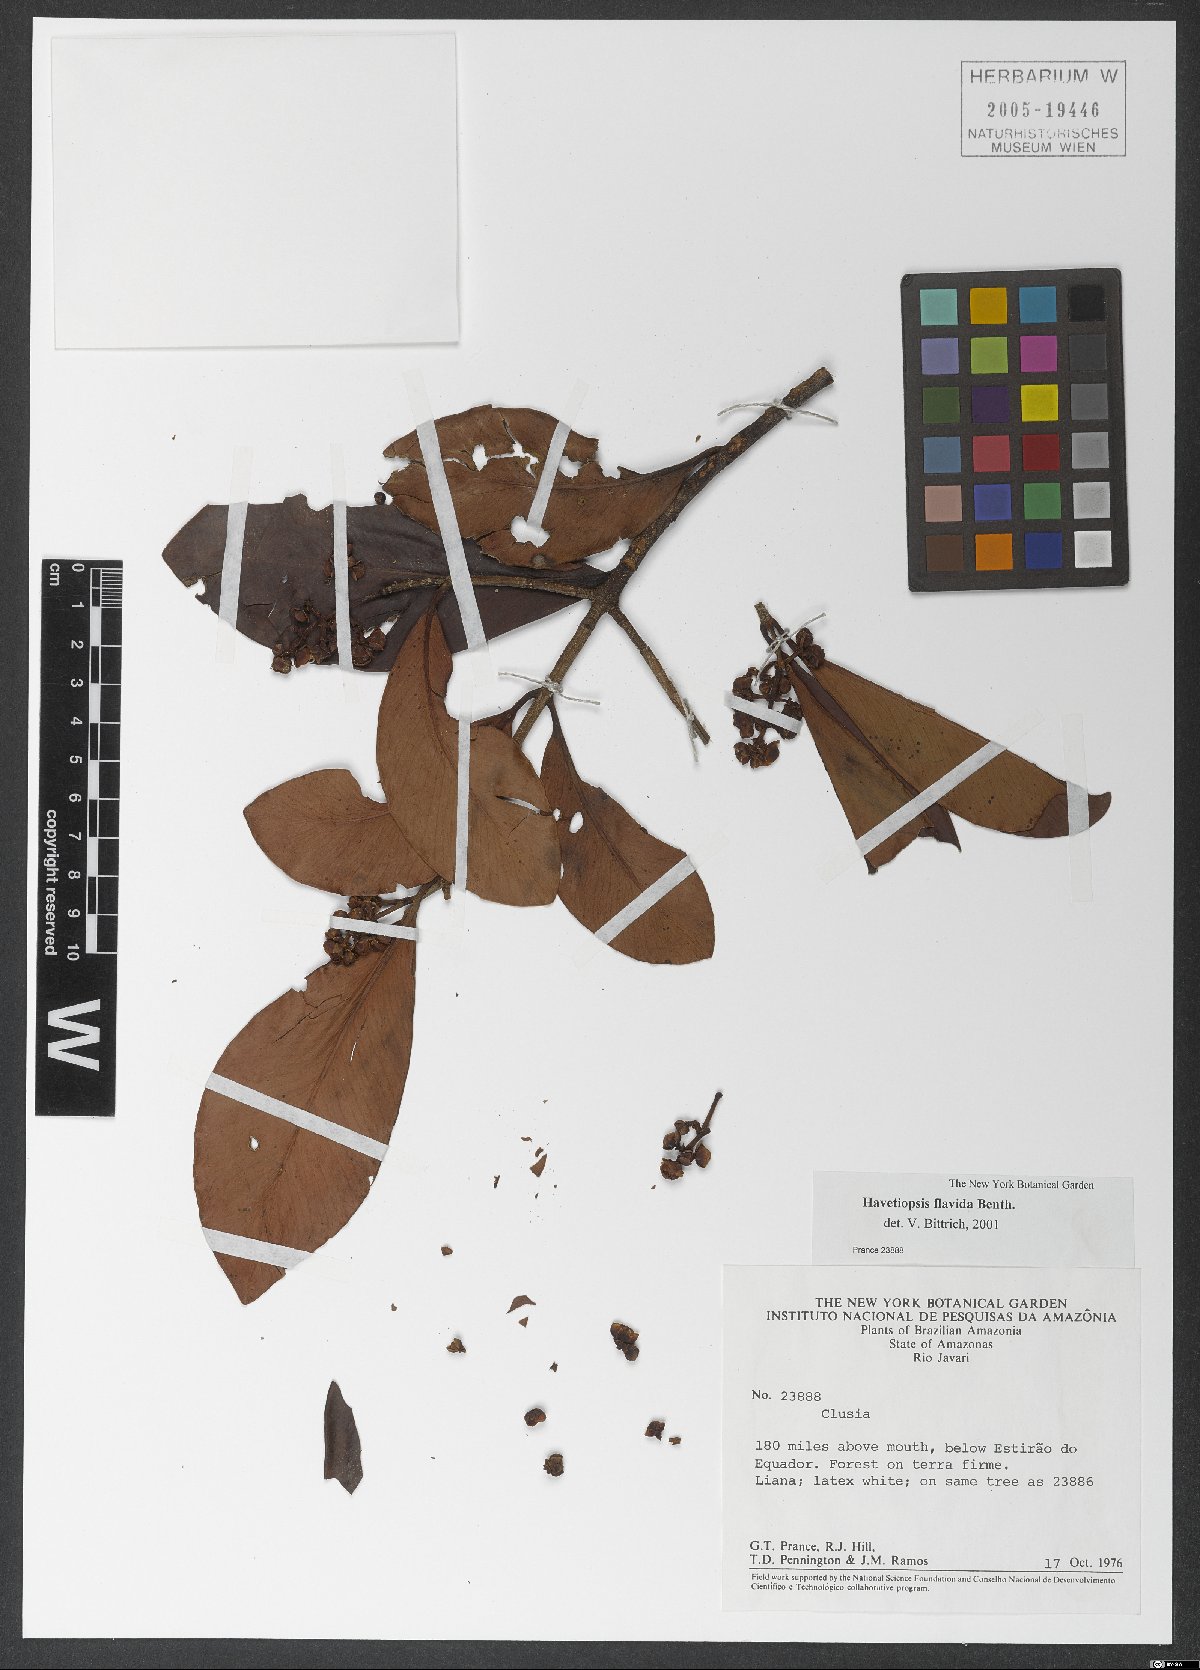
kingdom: Plantae
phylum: Tracheophyta
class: Magnoliopsida
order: Malpighiales
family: Clusiaceae
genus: Clusia
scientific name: Clusia flavida
